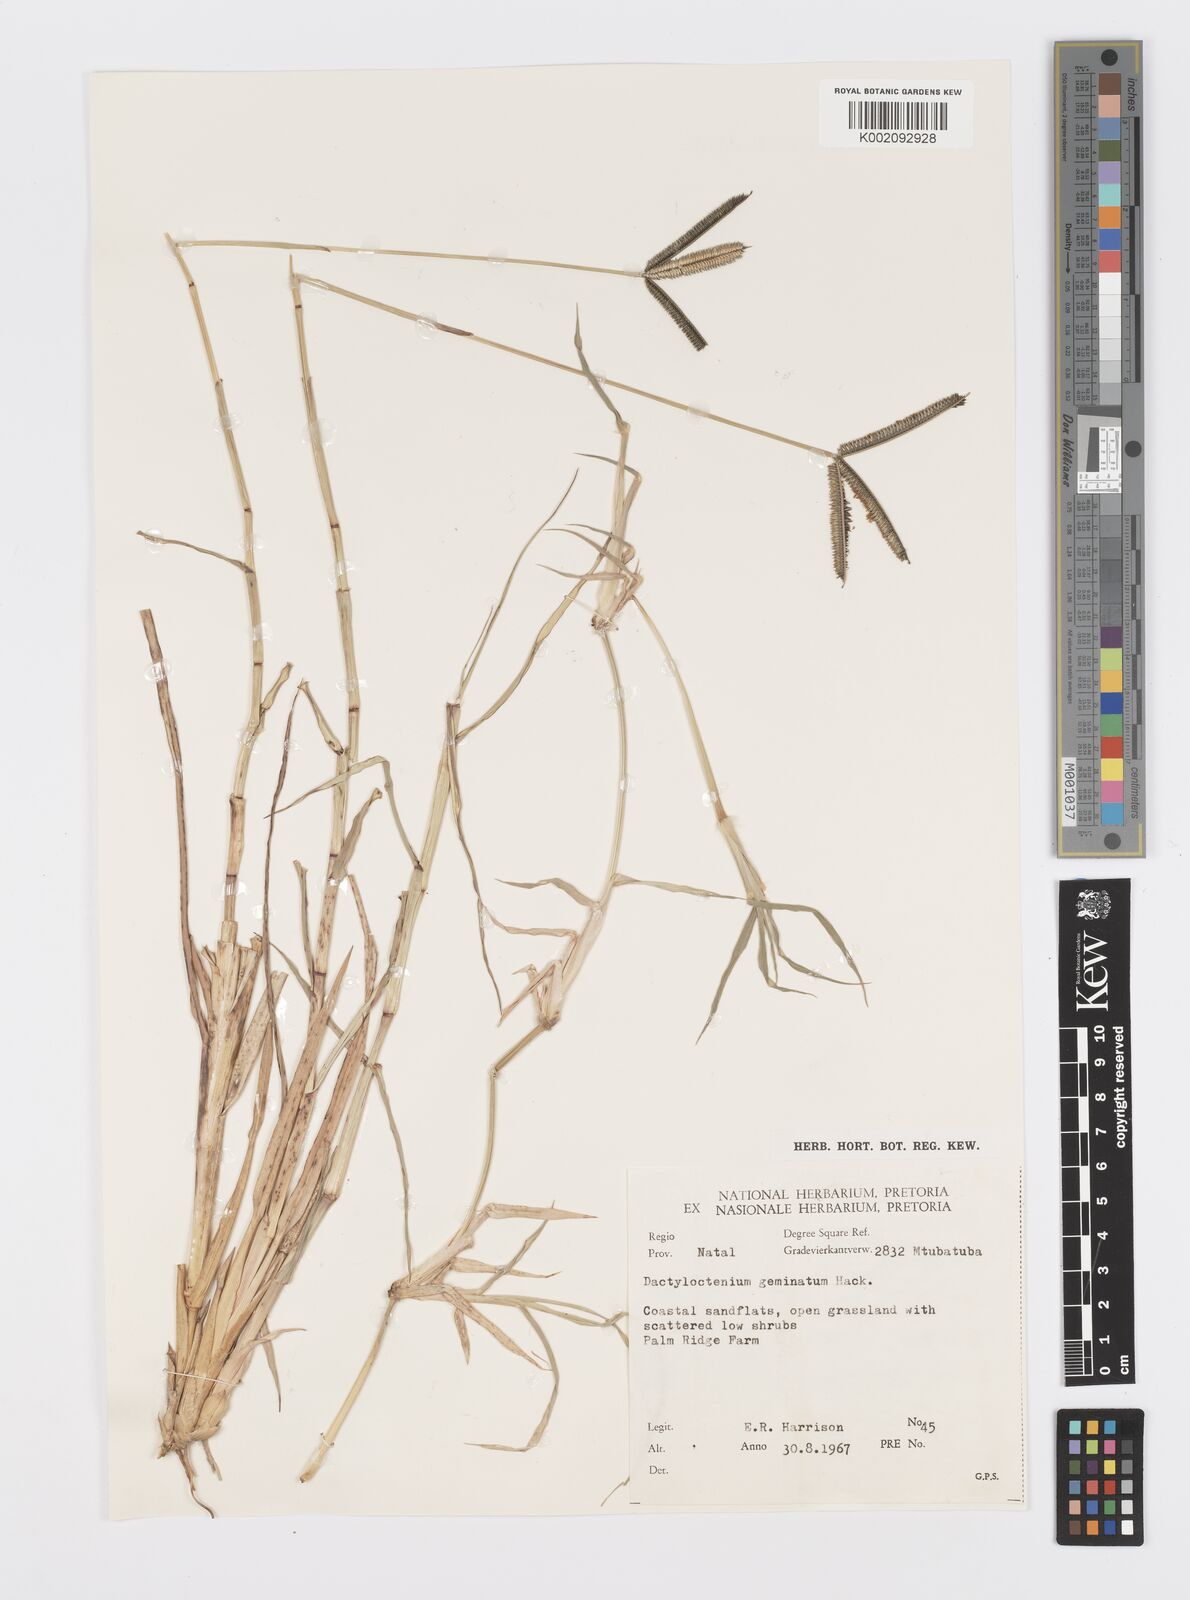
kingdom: Plantae
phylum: Tracheophyta
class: Liliopsida
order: Poales
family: Poaceae
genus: Dactyloctenium
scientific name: Dactyloctenium geminatum
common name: Crowsfoot grass
